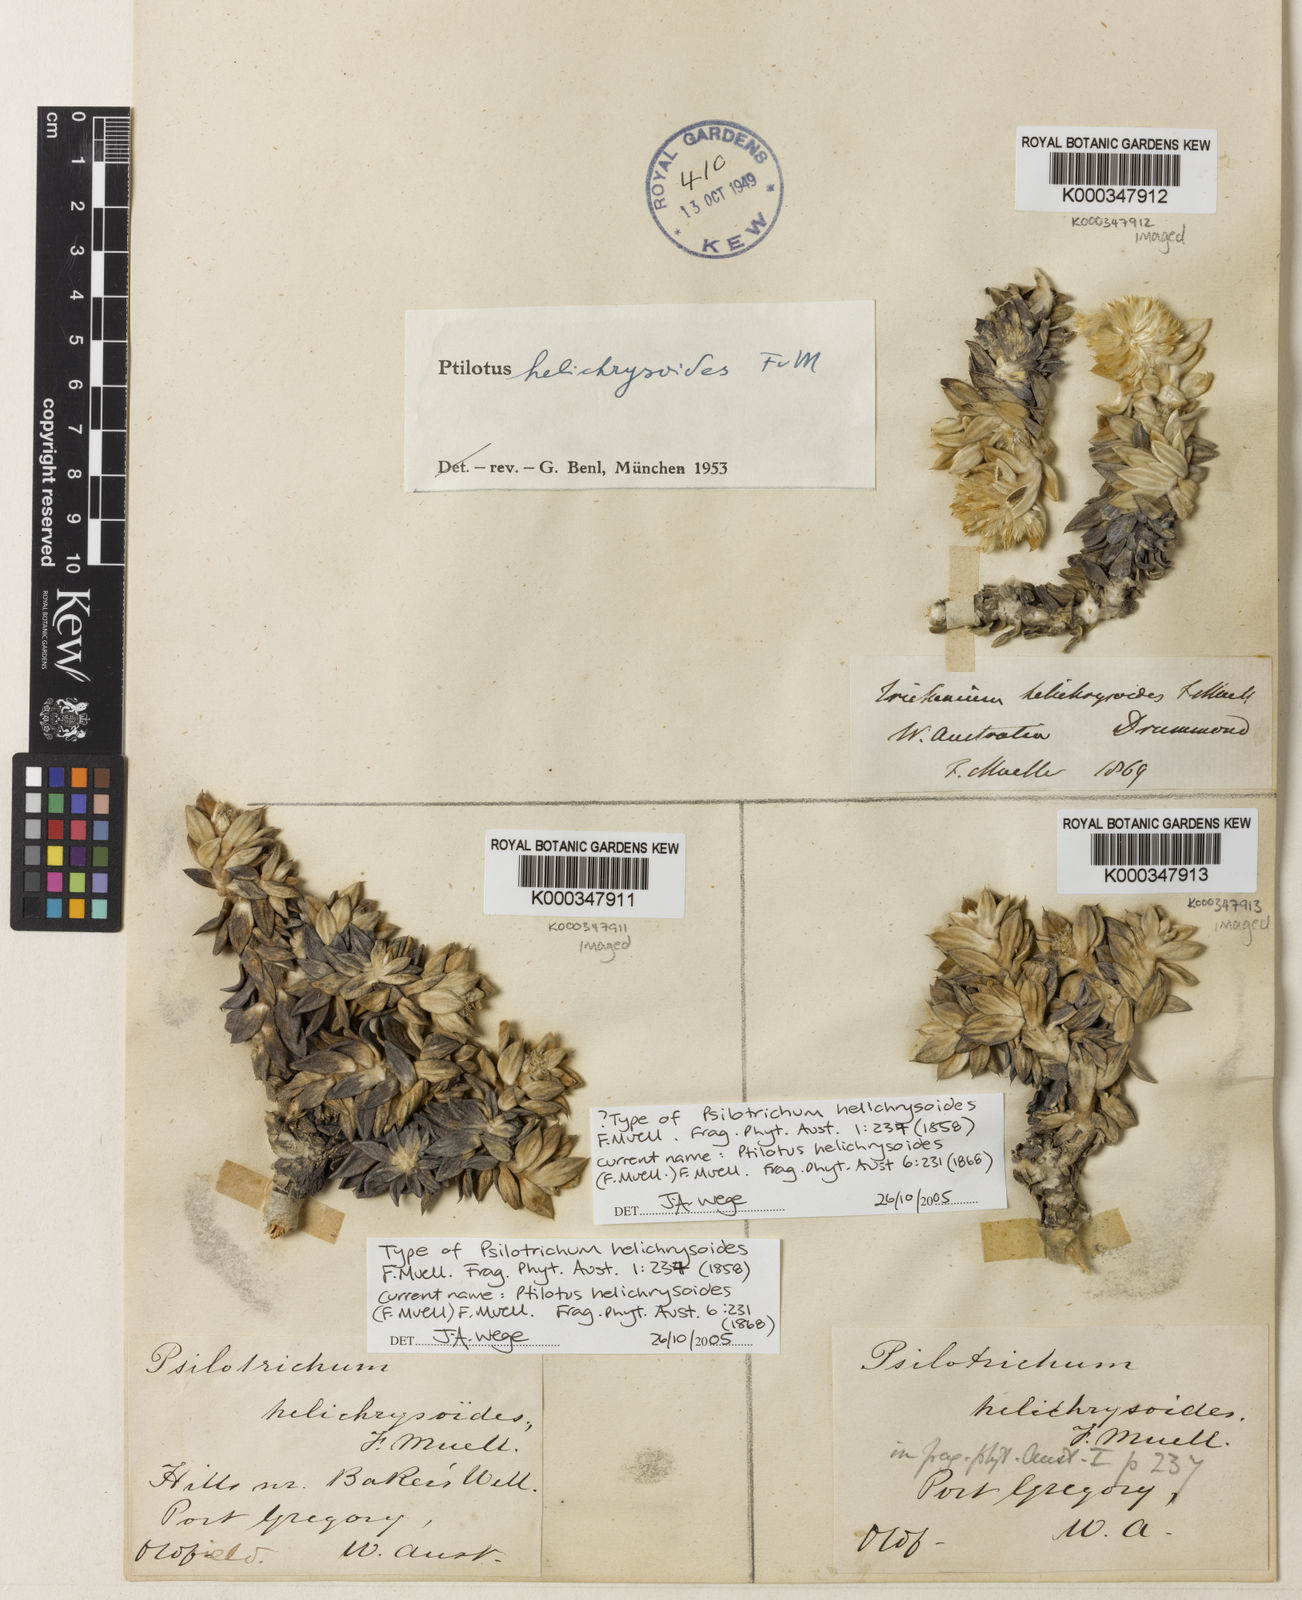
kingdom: Plantae
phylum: Tracheophyta
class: Magnoliopsida
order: Caryophyllales
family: Amaranthaceae
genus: Ptilotus
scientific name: Ptilotus helichrysoides
